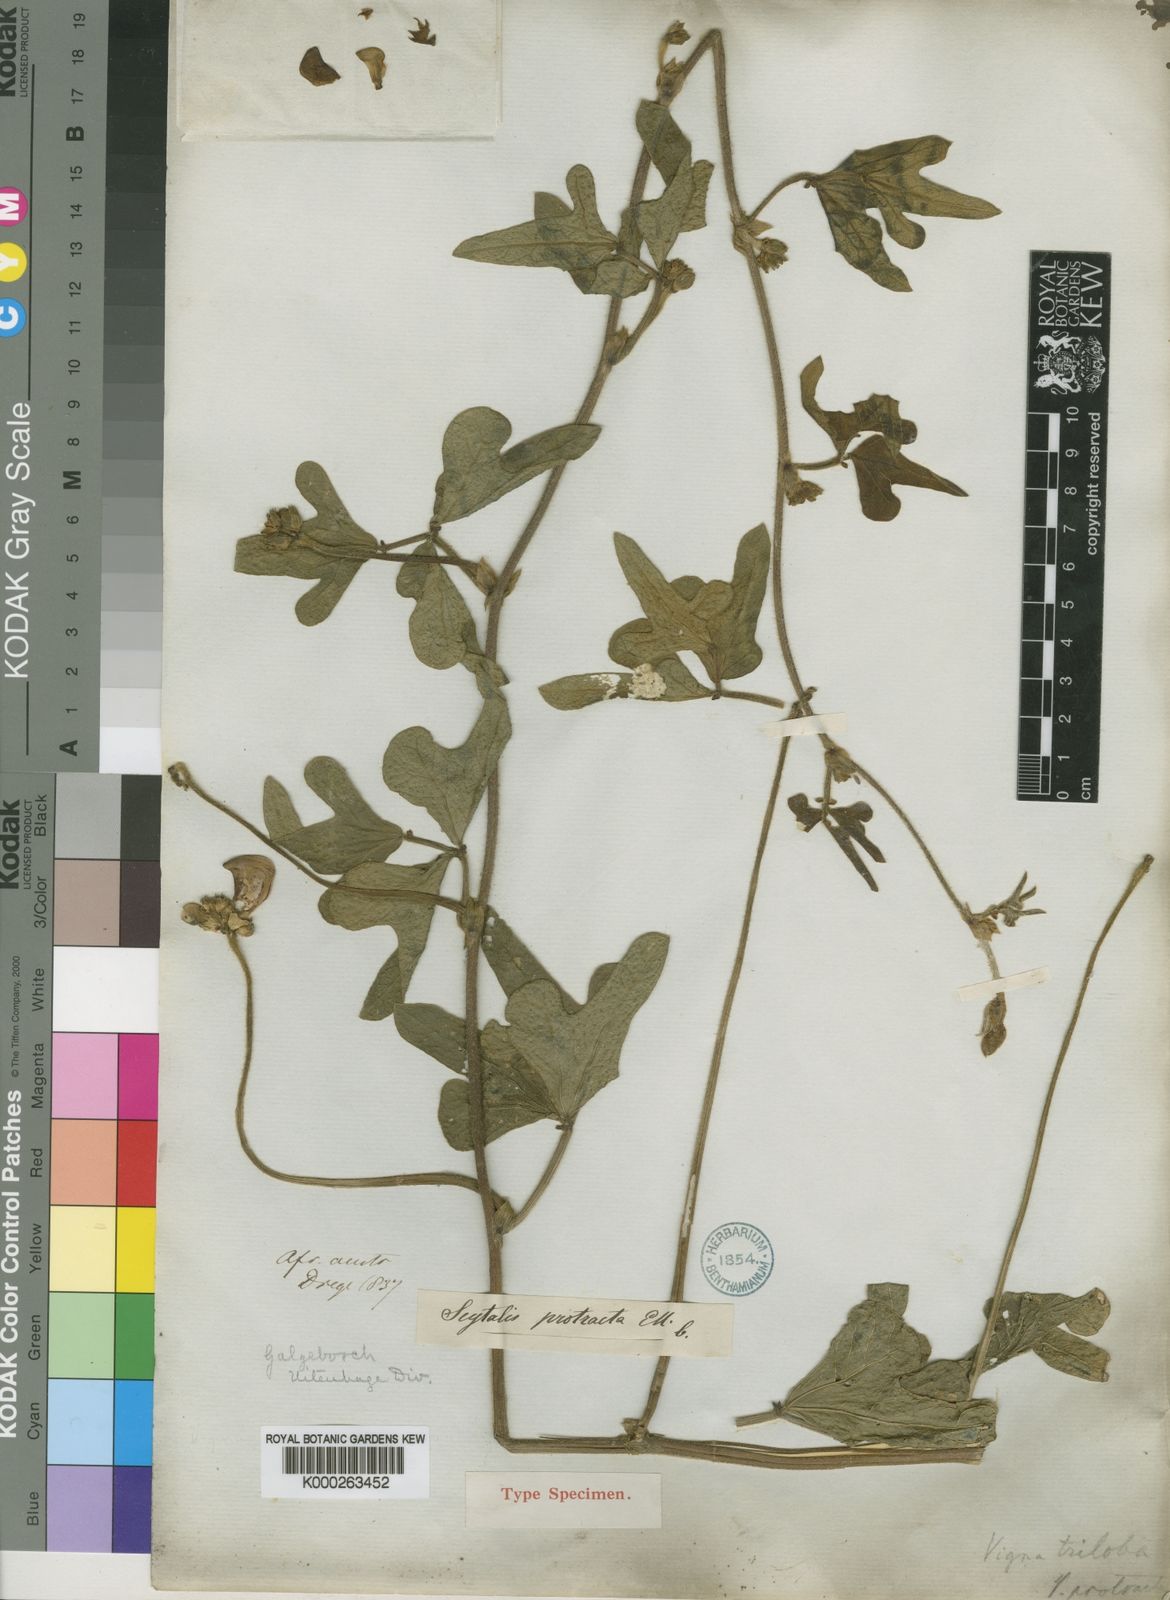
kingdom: Plantae
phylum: Tracheophyta
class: Magnoliopsida
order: Fabales
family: Fabaceae
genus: Vigna
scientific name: Vigna unguiculata
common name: Cowpea
